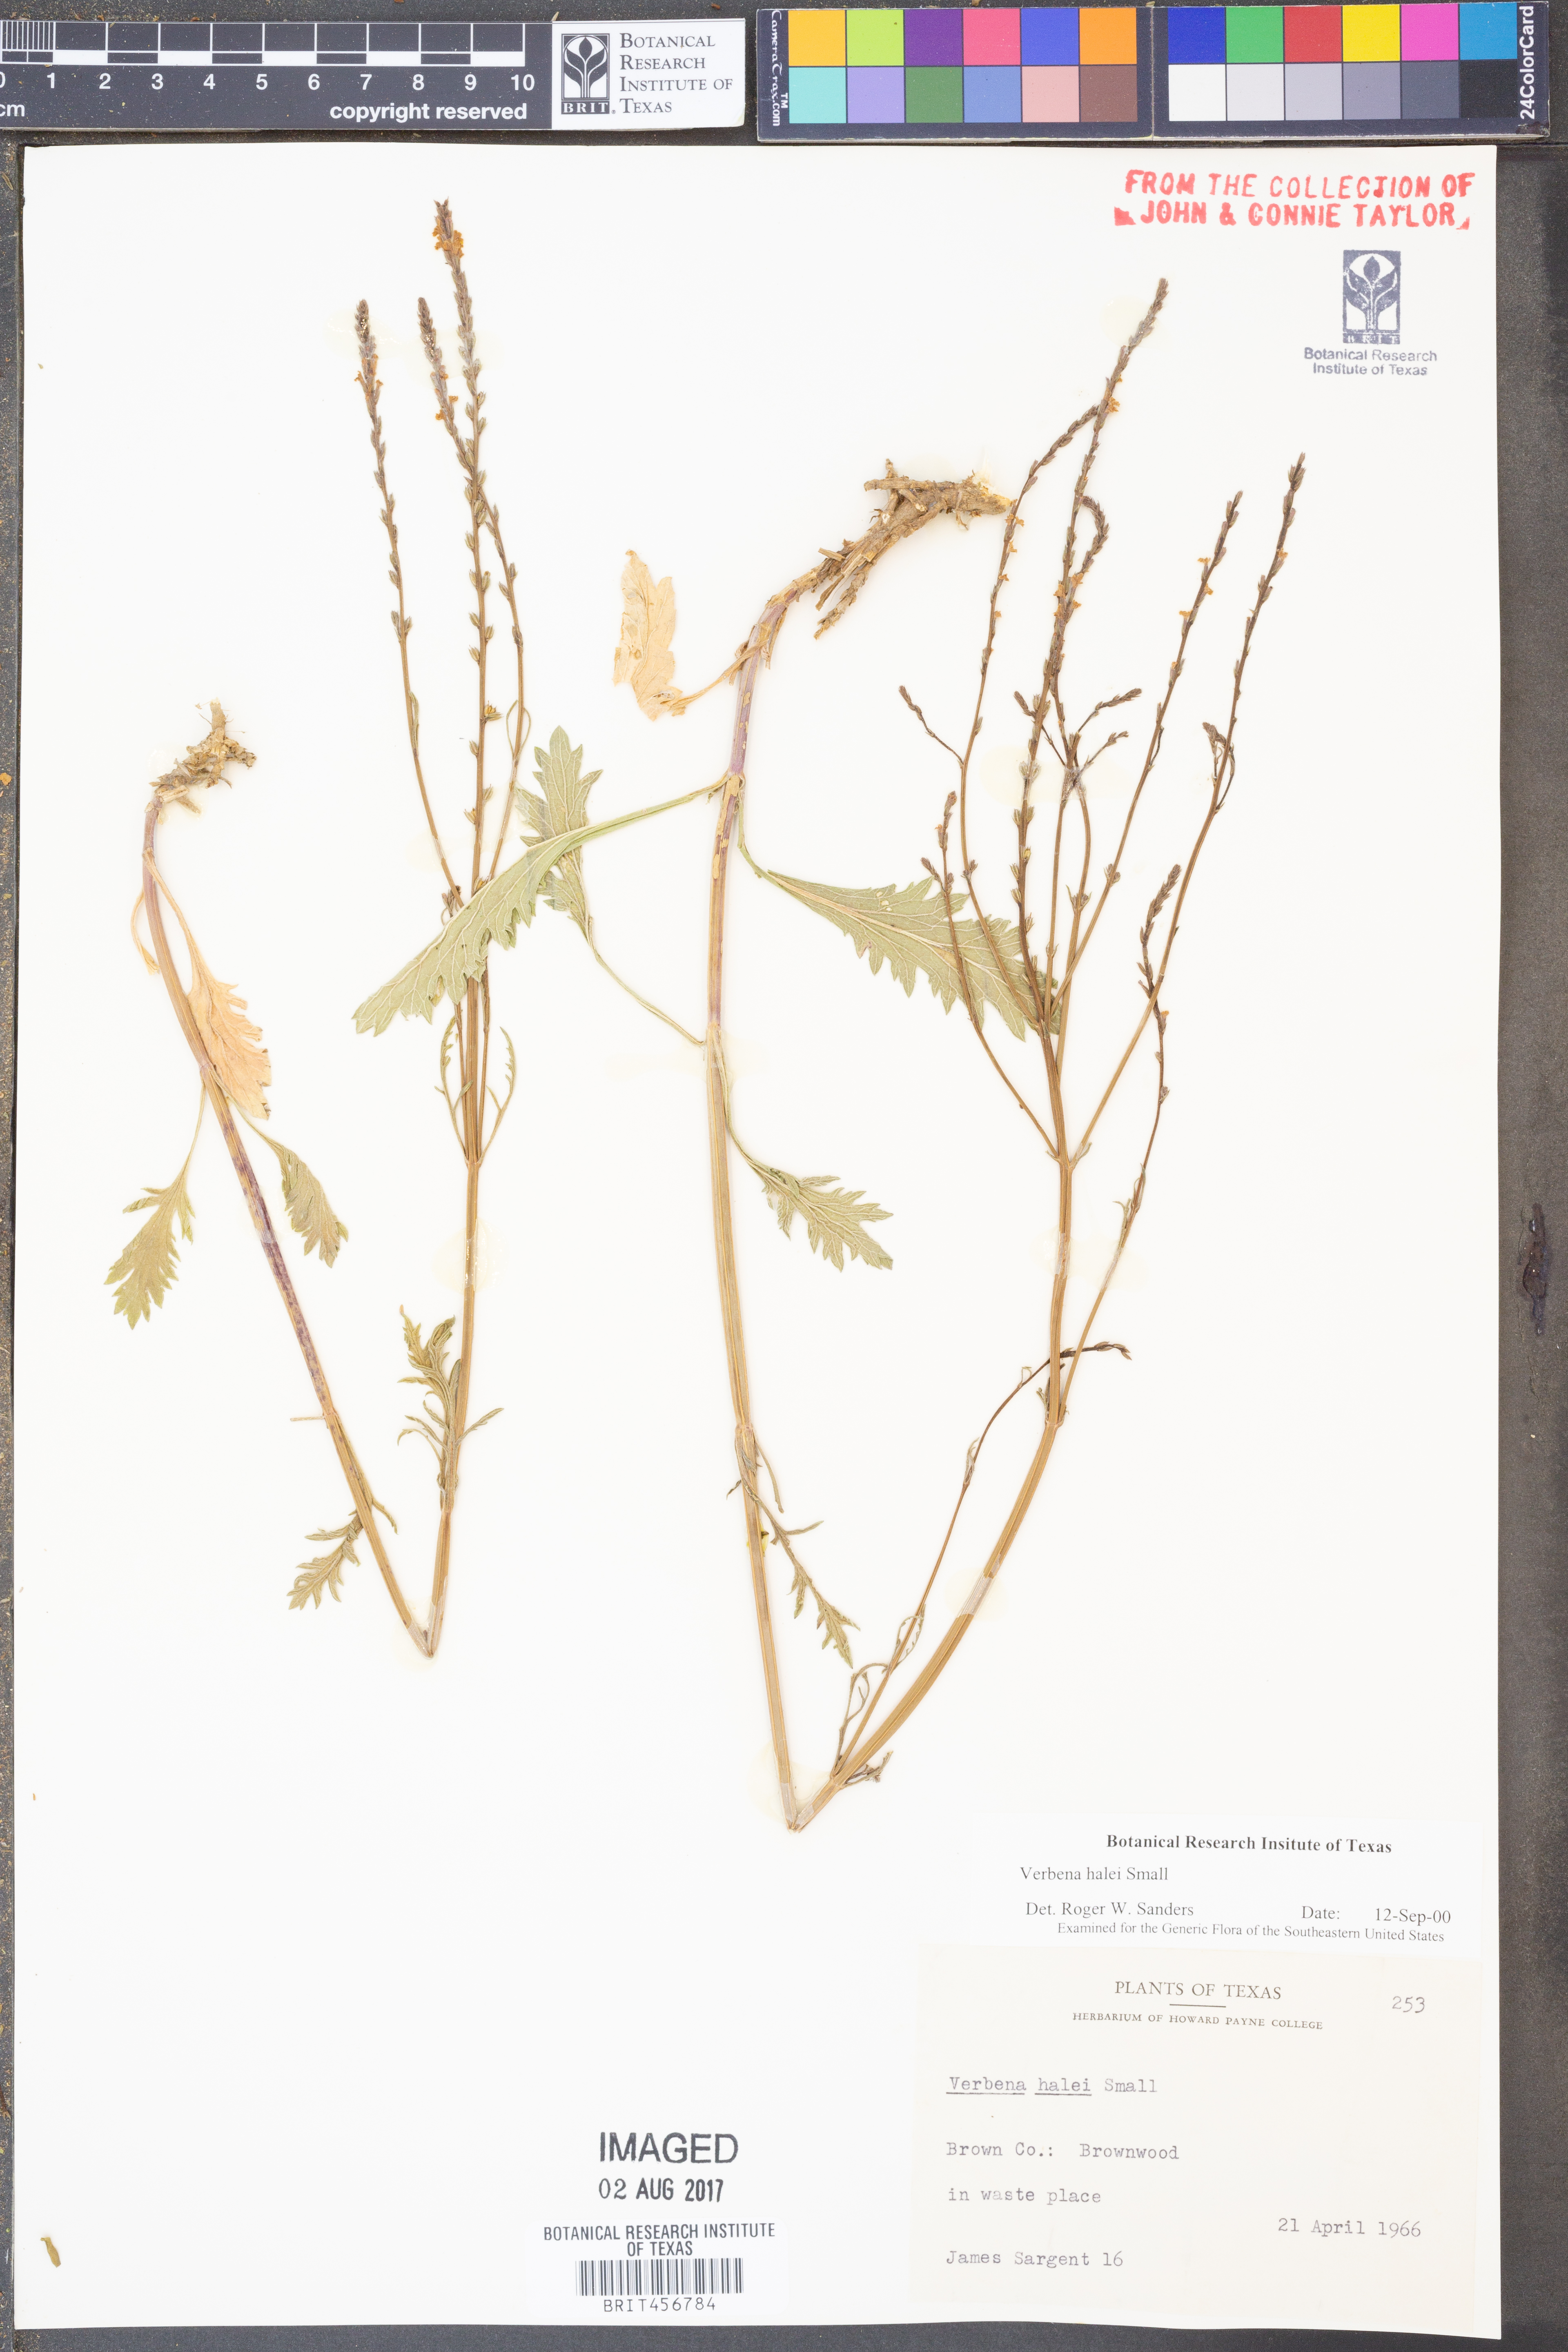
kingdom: Plantae
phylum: Tracheophyta
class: Magnoliopsida
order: Lamiales
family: Verbenaceae
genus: Verbena
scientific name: Verbena halei
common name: Texas vervain
